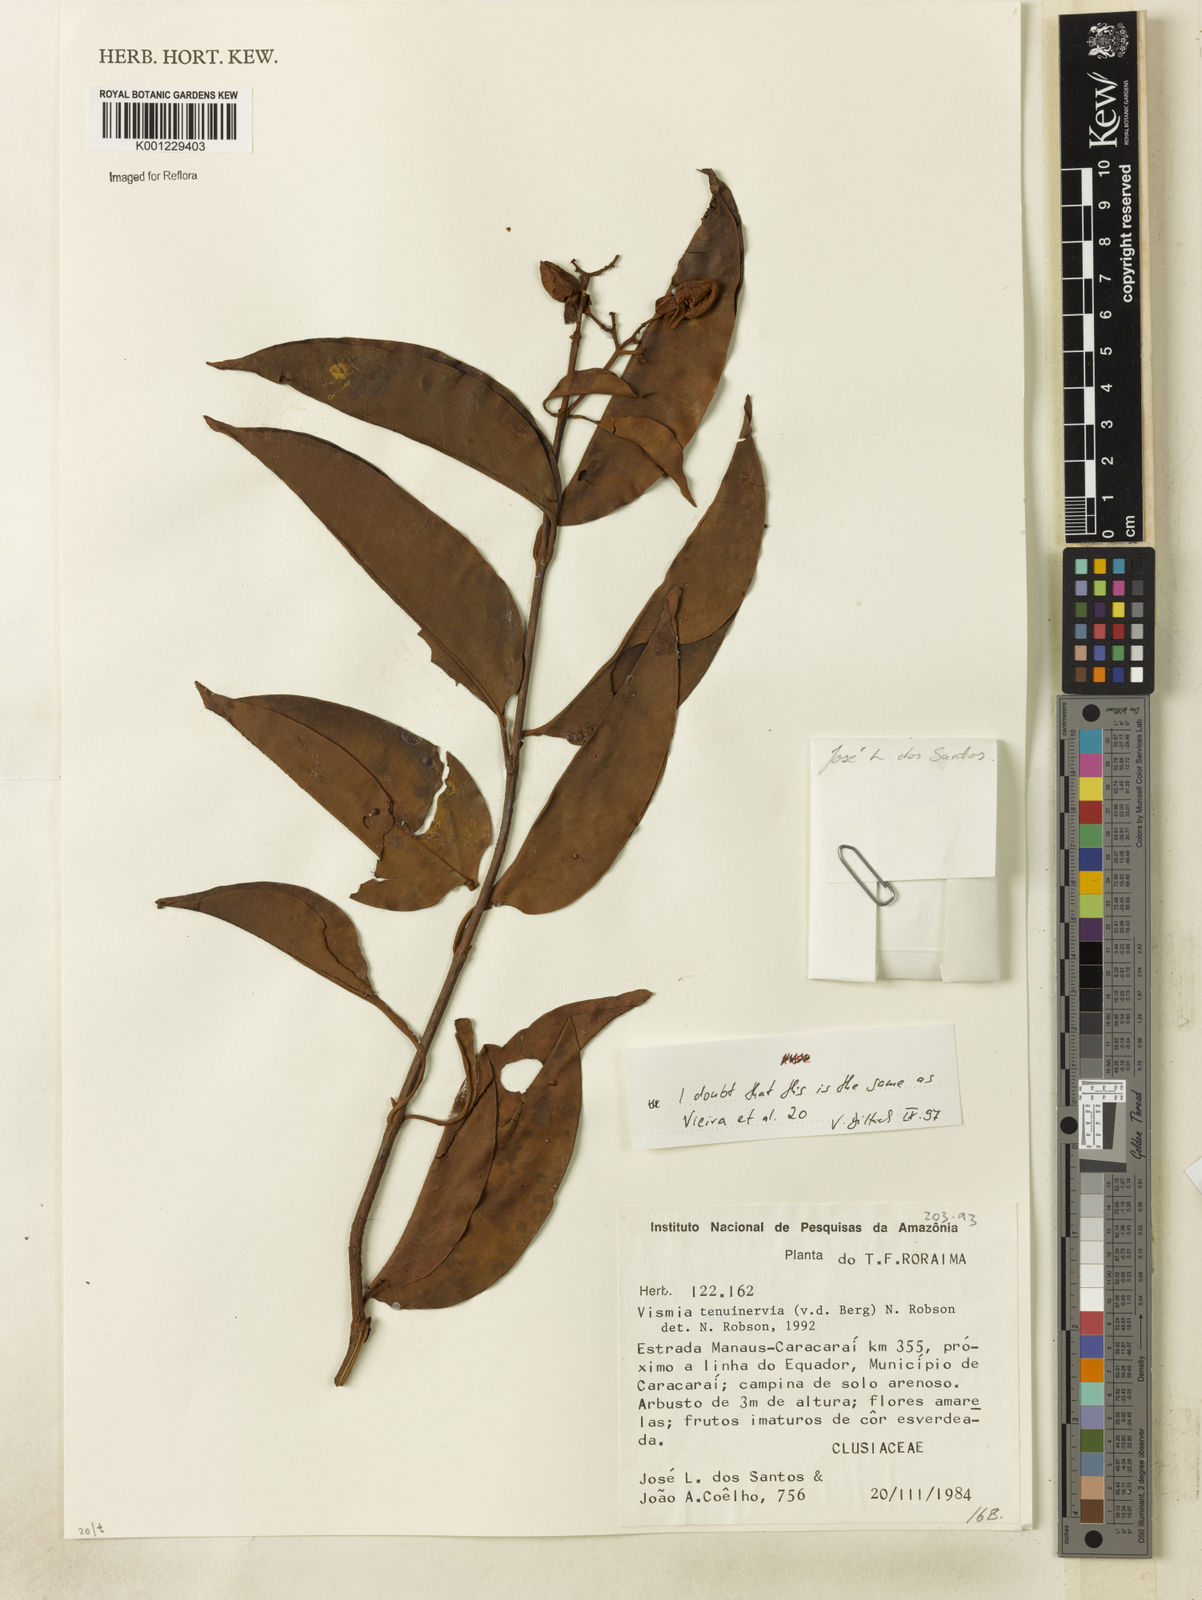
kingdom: Plantae
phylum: Tracheophyta
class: Magnoliopsida
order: Malpighiales
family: Hypericaceae
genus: Vismia
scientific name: Vismia tenuinervia
